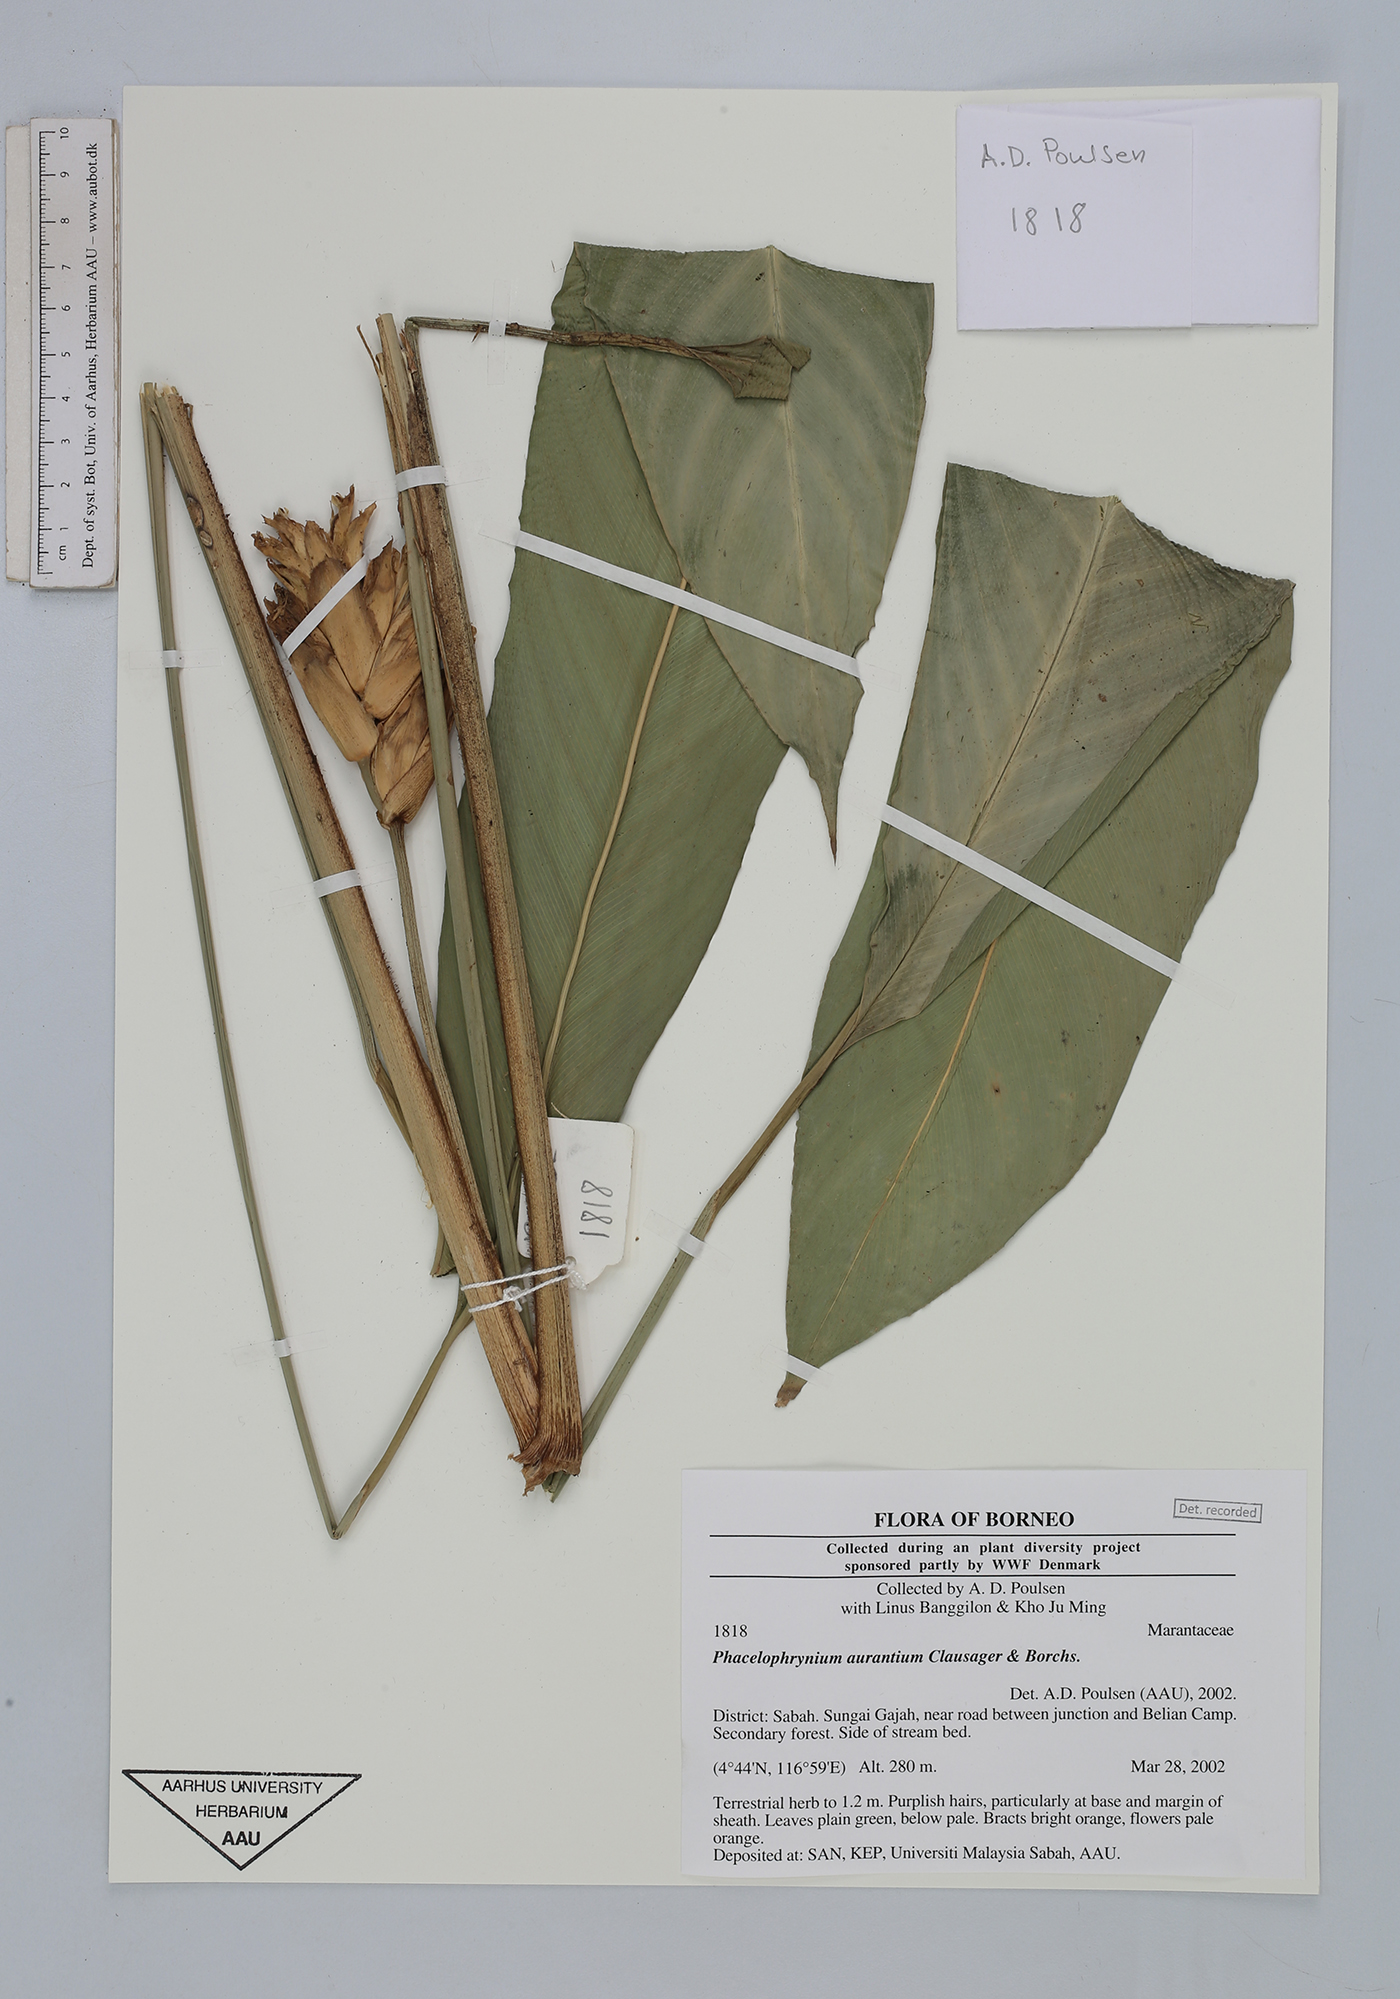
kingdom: Plantae
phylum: Tracheophyta
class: Liliopsida
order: Zingiberales
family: Marantaceae
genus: Phrynium
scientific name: Phrynium aurantium
